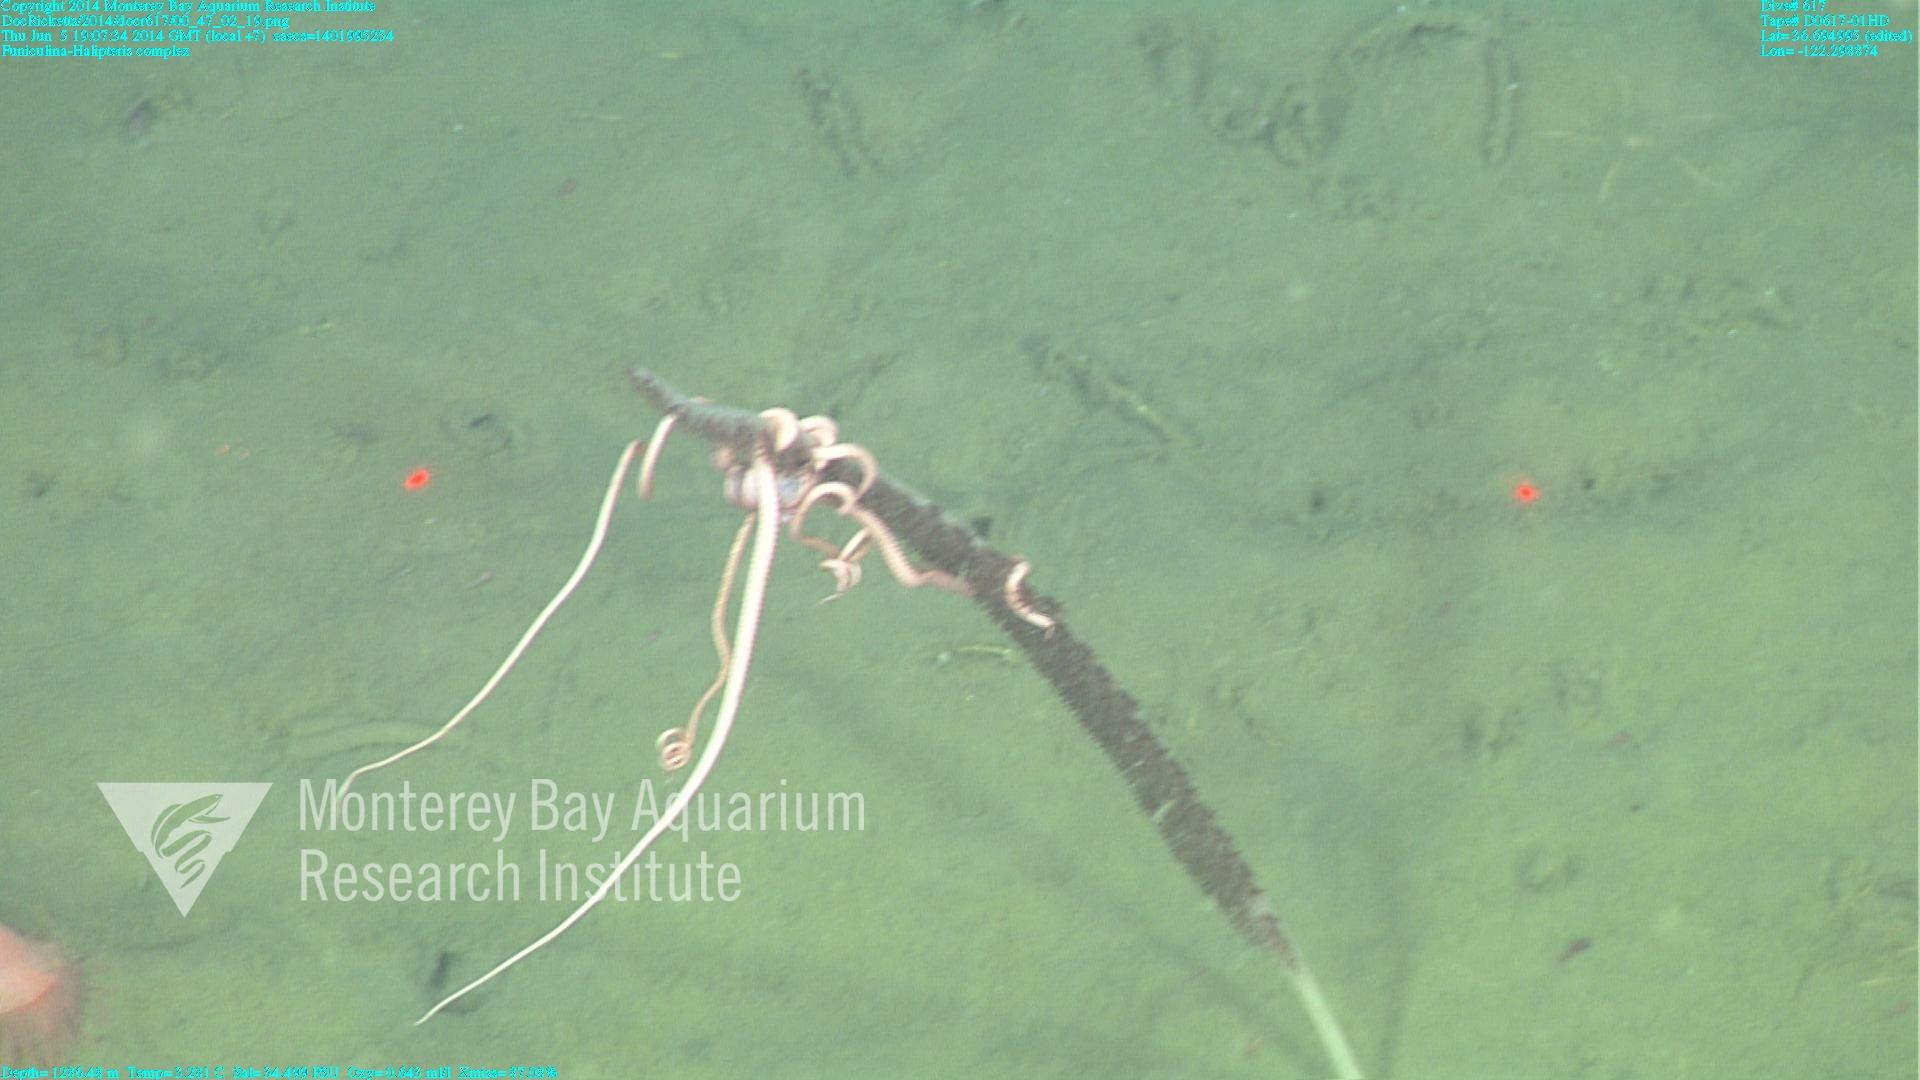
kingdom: Animalia
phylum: Cnidaria
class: Anthozoa
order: Scleralcyonacea
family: Funiculinidae
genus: Funiculina
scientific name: Funiculina
